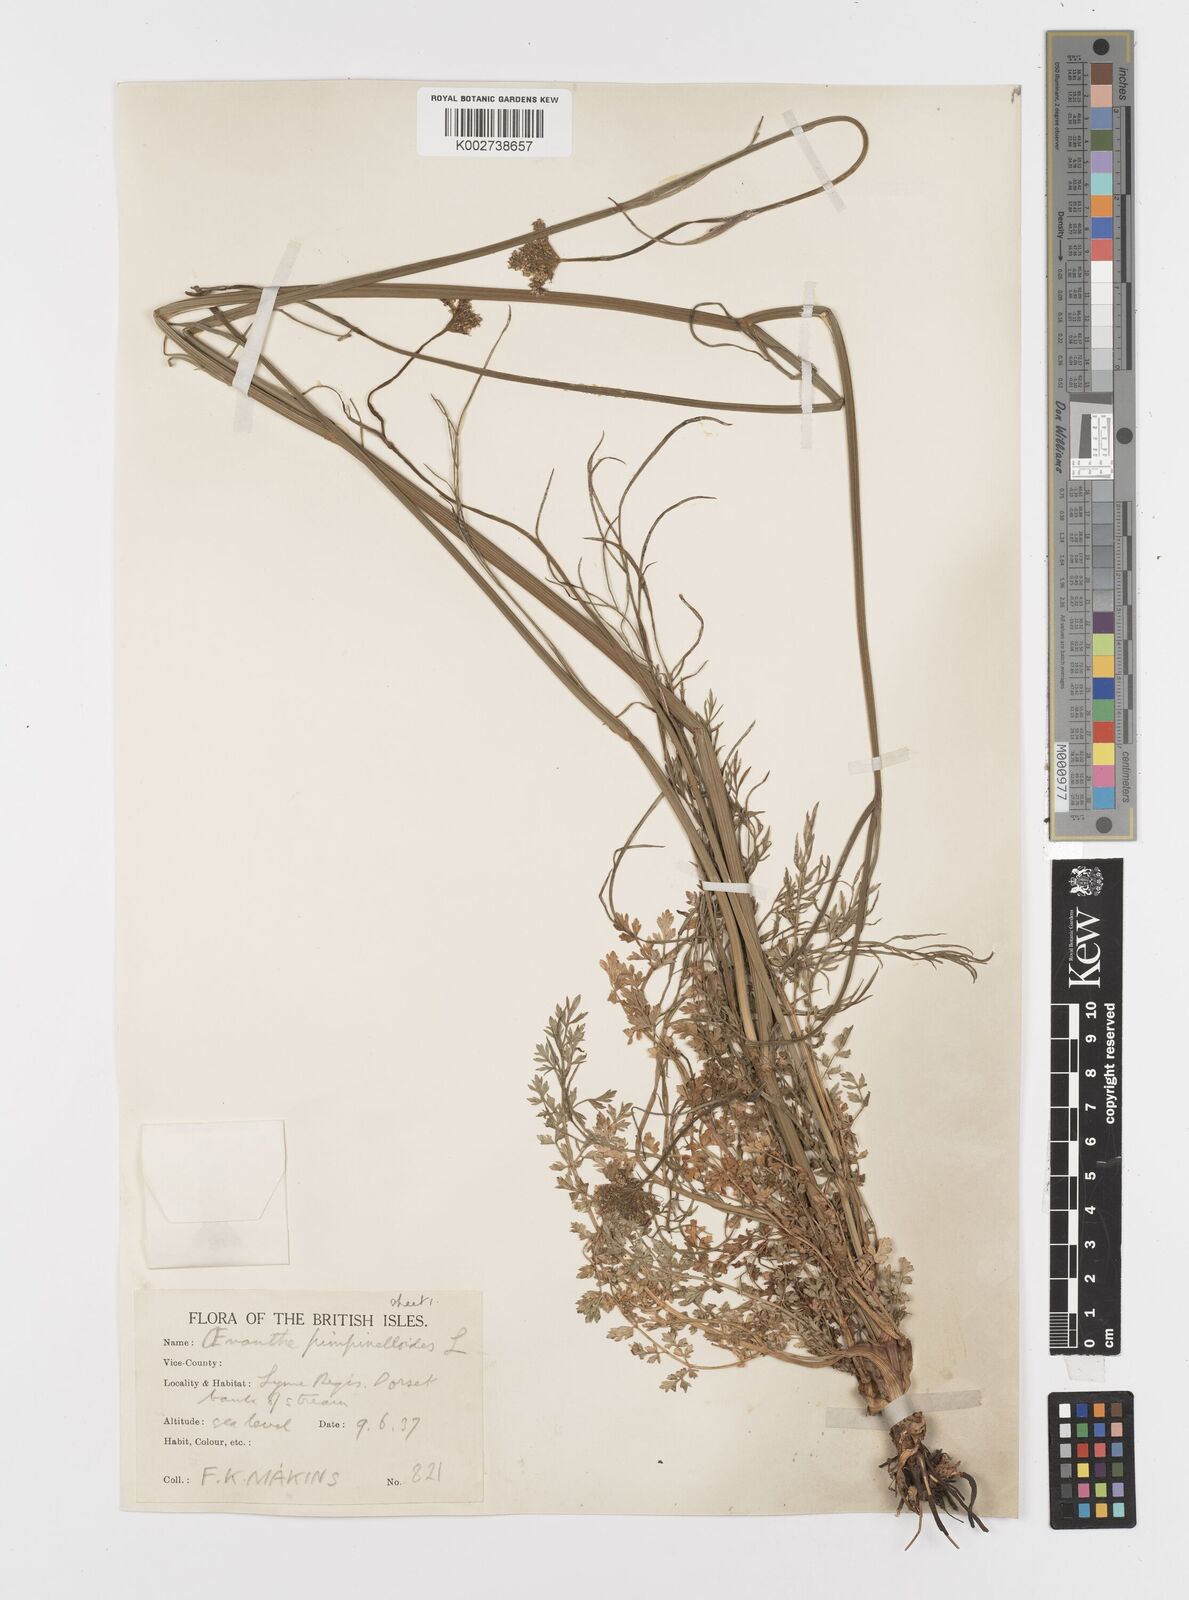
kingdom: Plantae
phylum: Tracheophyta
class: Magnoliopsida
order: Apiales
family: Apiaceae
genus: Oenanthe
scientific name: Oenanthe pimpinelloides
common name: Corky-fruited water-dropwort
